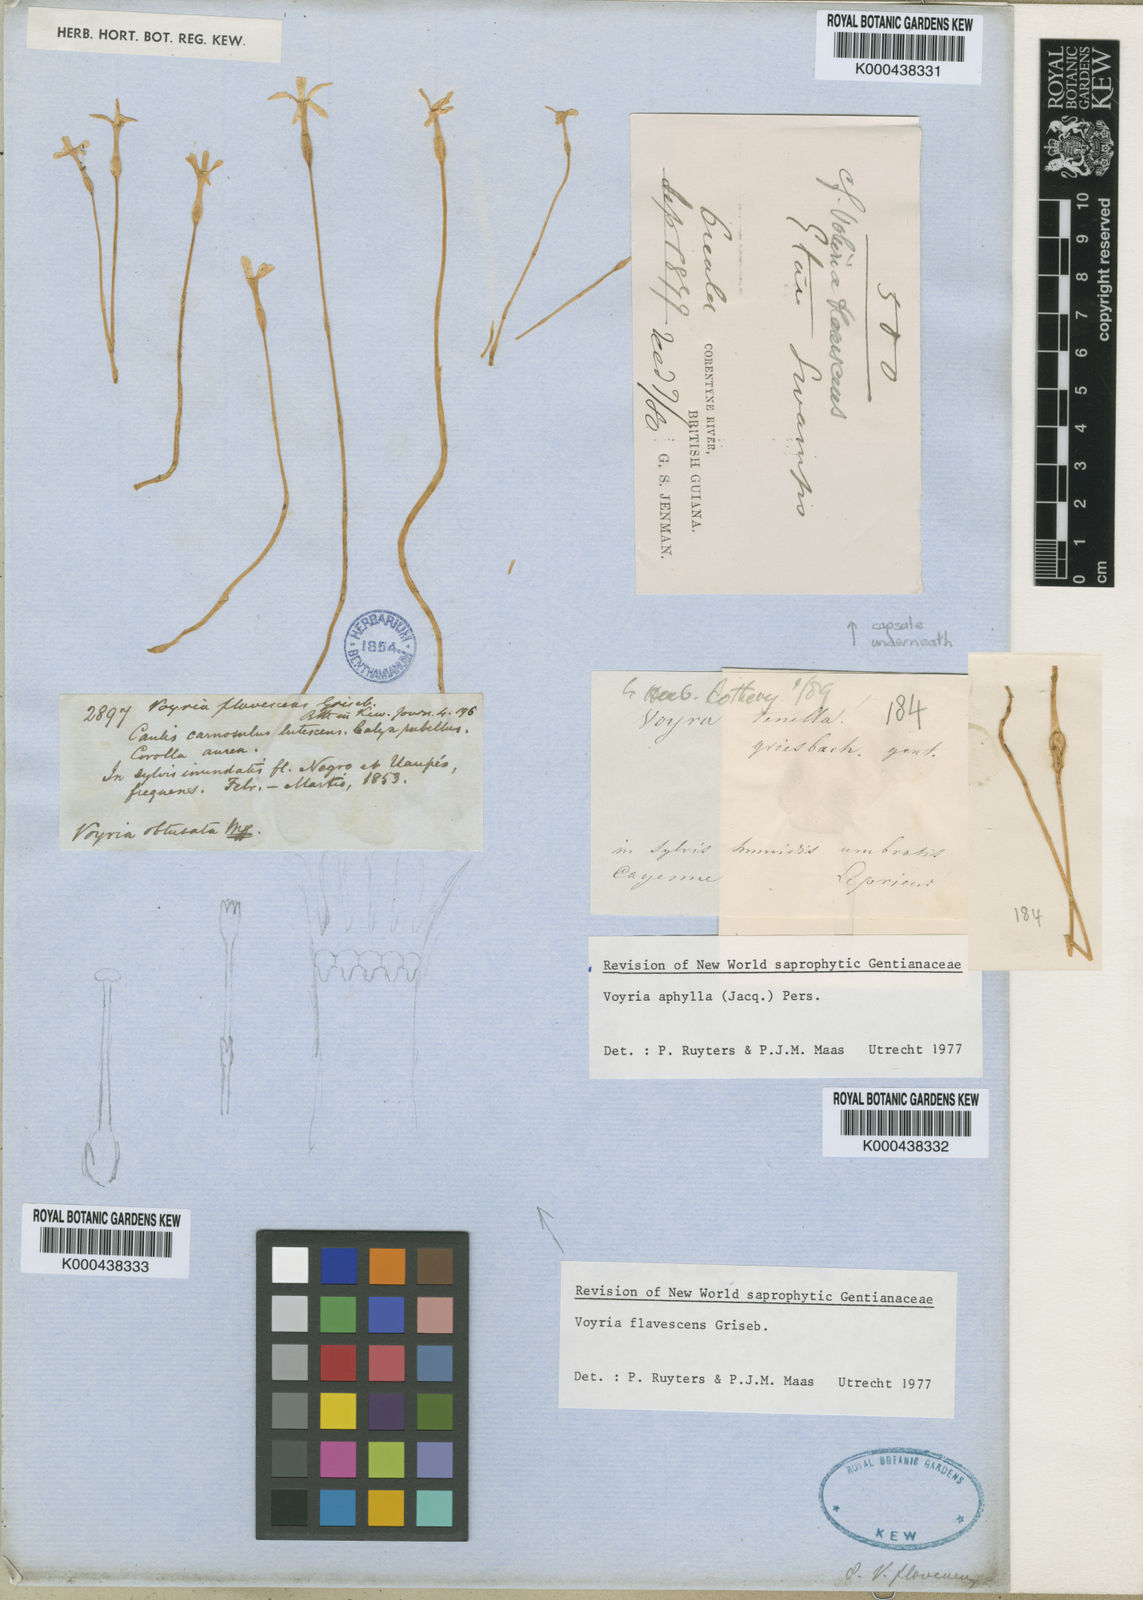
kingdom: Plantae
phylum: Tracheophyta
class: Magnoliopsida
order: Gentianales
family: Gentianaceae
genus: Voyria
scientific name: Voyria flavescens
